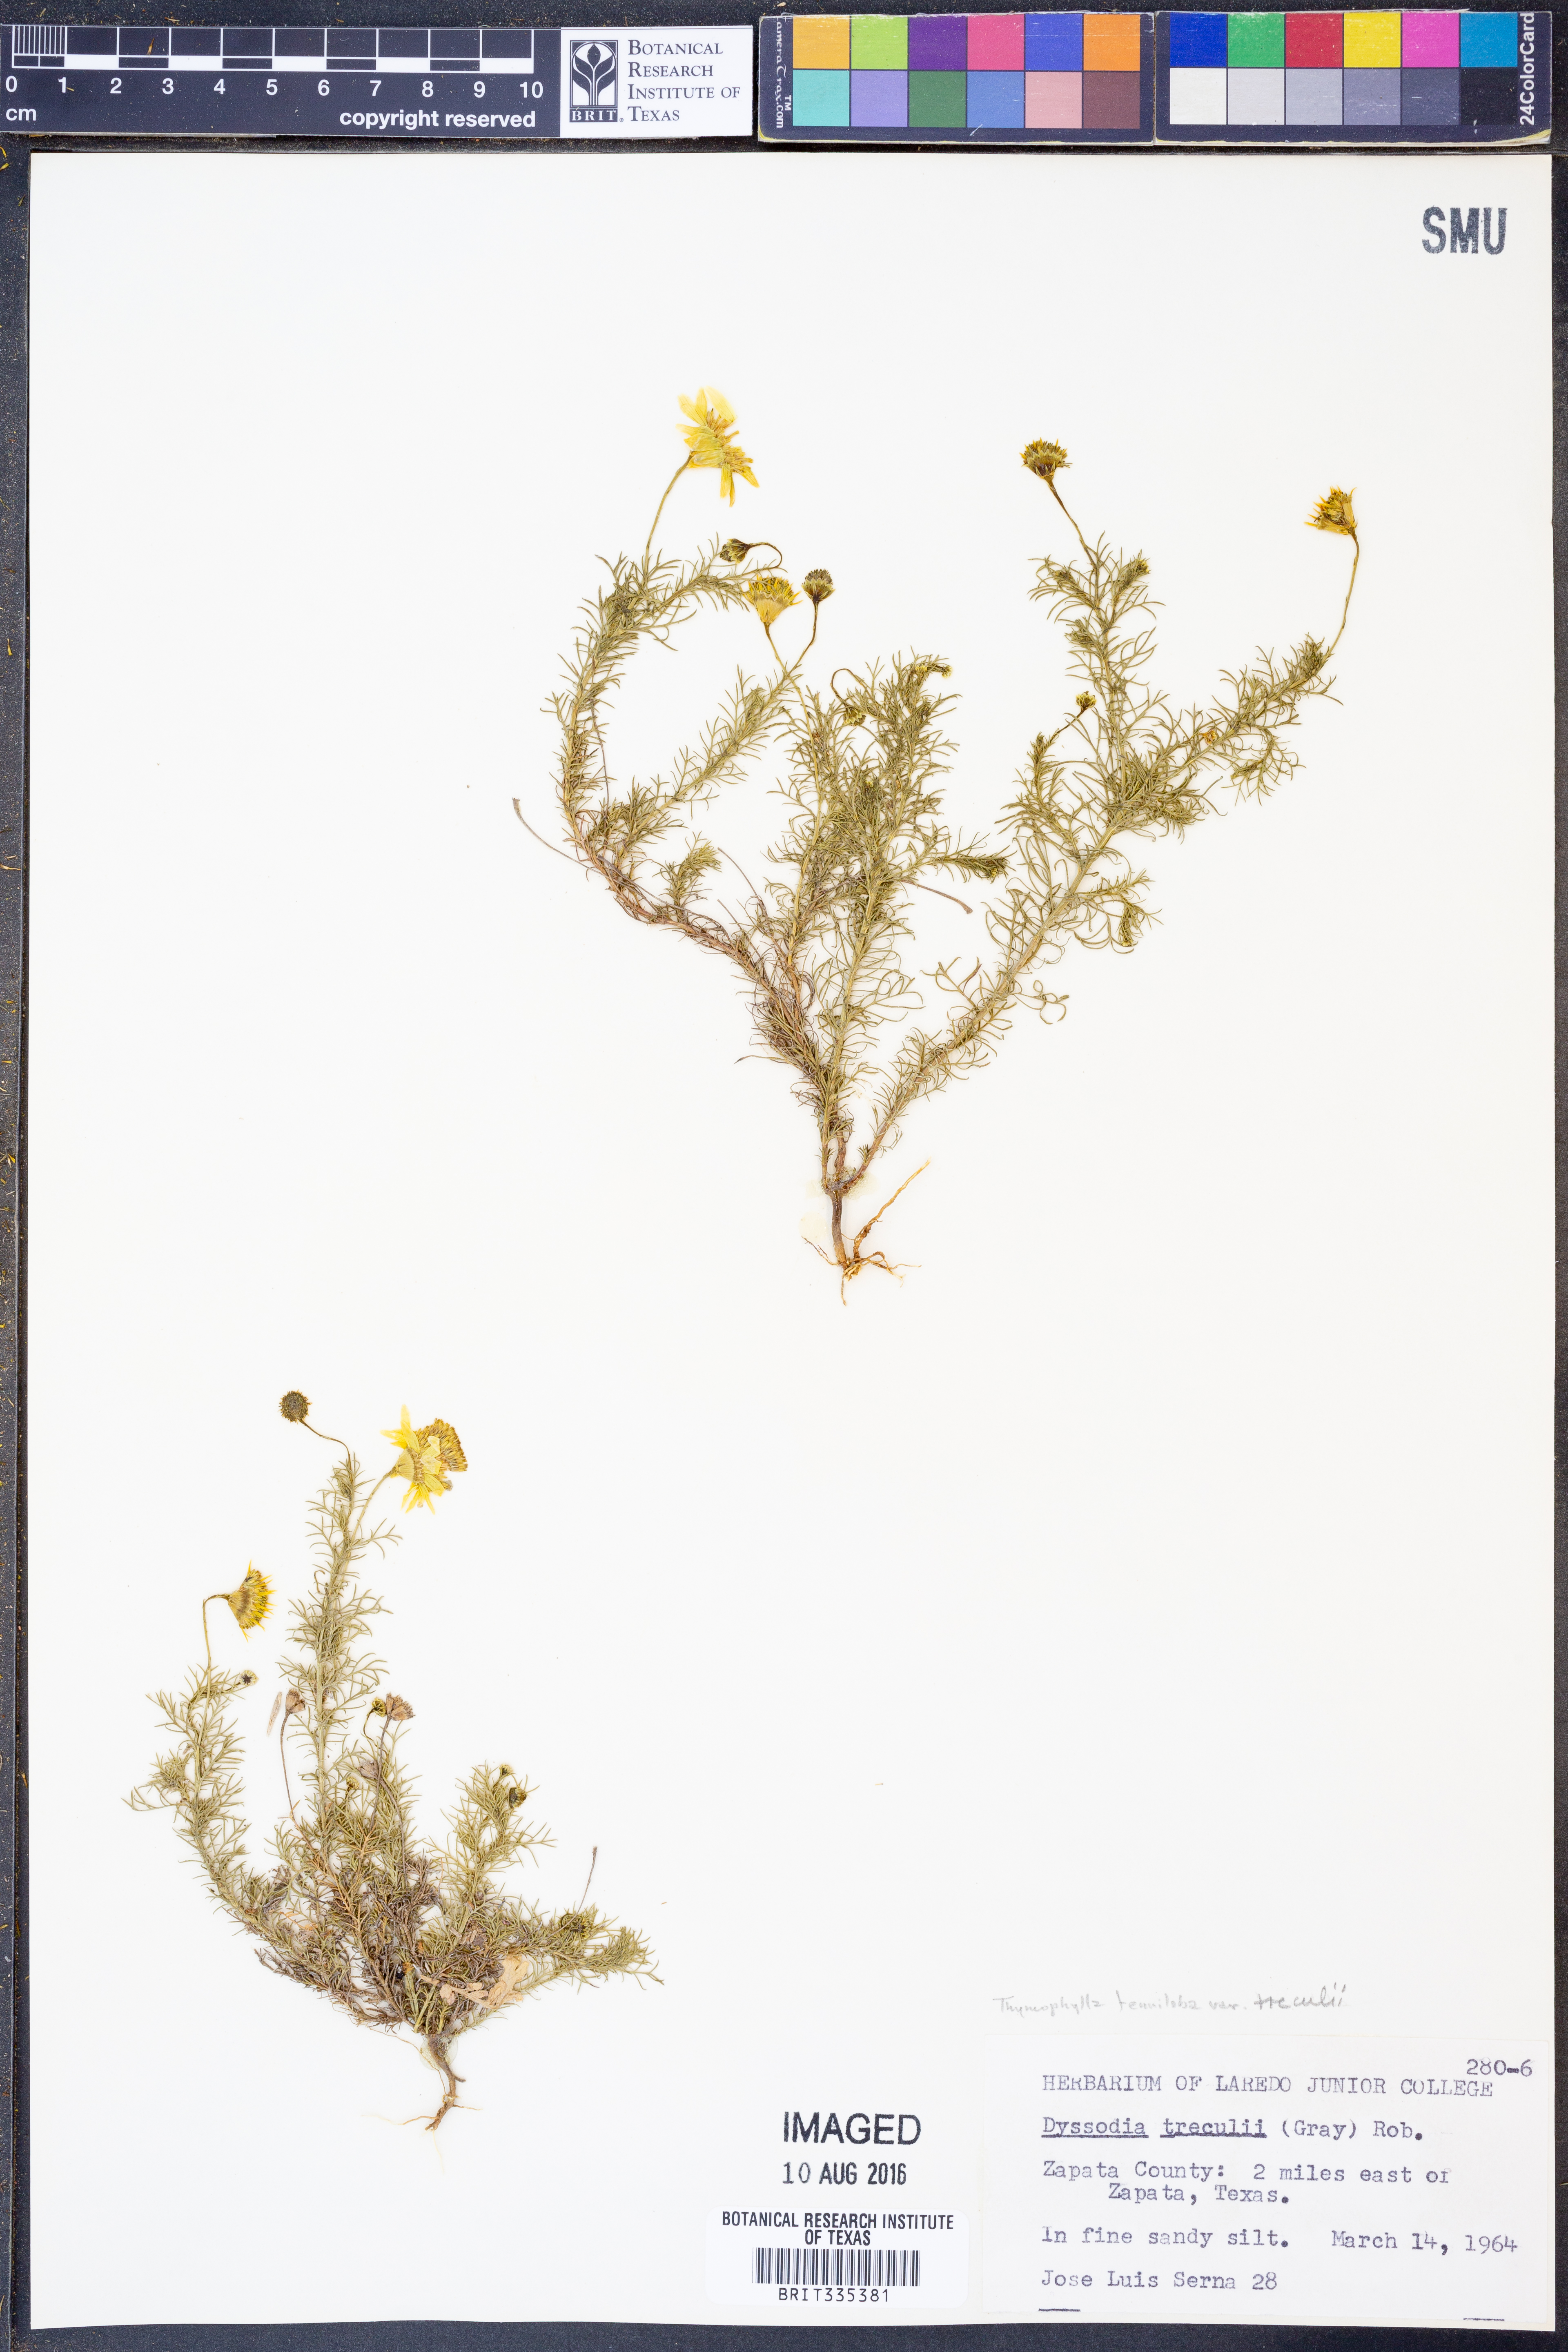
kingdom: Plantae
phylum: Tracheophyta
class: Magnoliopsida
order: Asterales
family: Asteraceae
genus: Thymophylla
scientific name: Thymophylla tenuiloba
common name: Dahlberg's daisy
